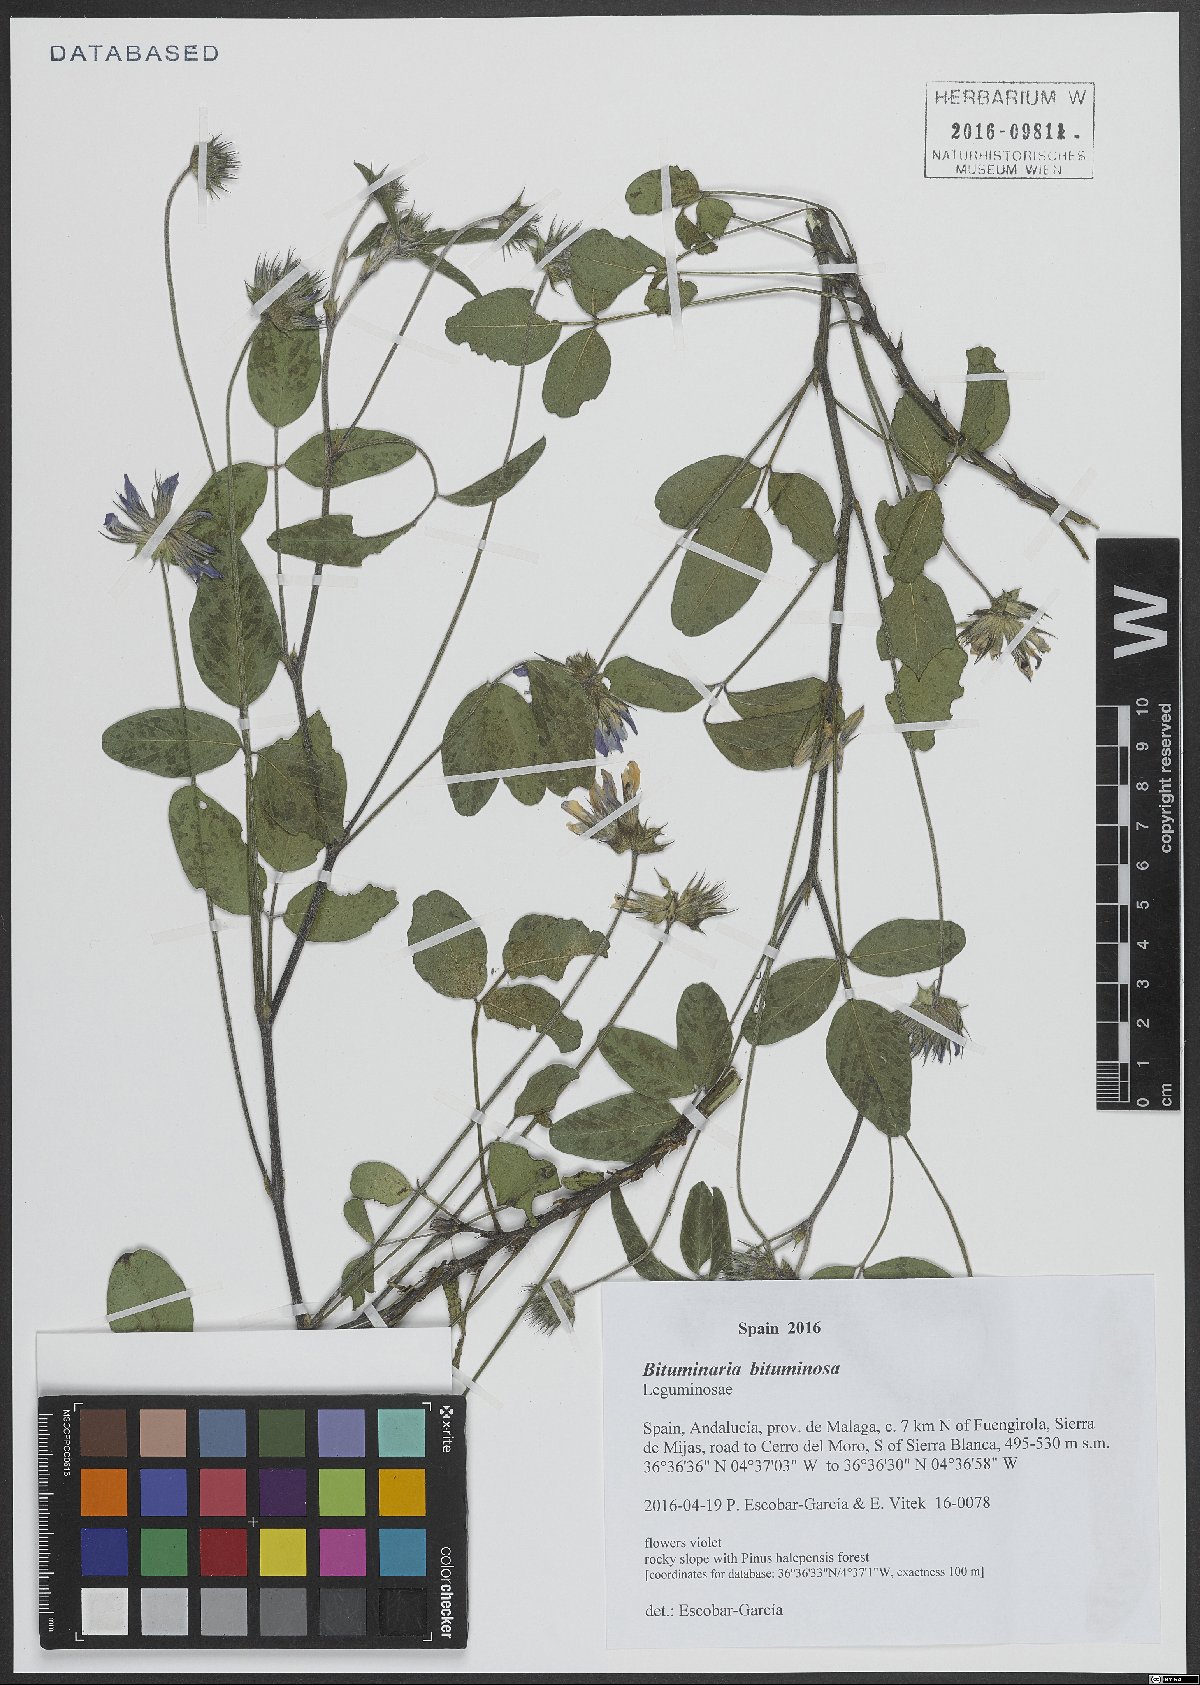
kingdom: Plantae
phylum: Tracheophyta
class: Magnoliopsida
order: Fabales
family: Fabaceae
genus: Bituminaria
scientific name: Bituminaria bituminosa
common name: Arabian pea
